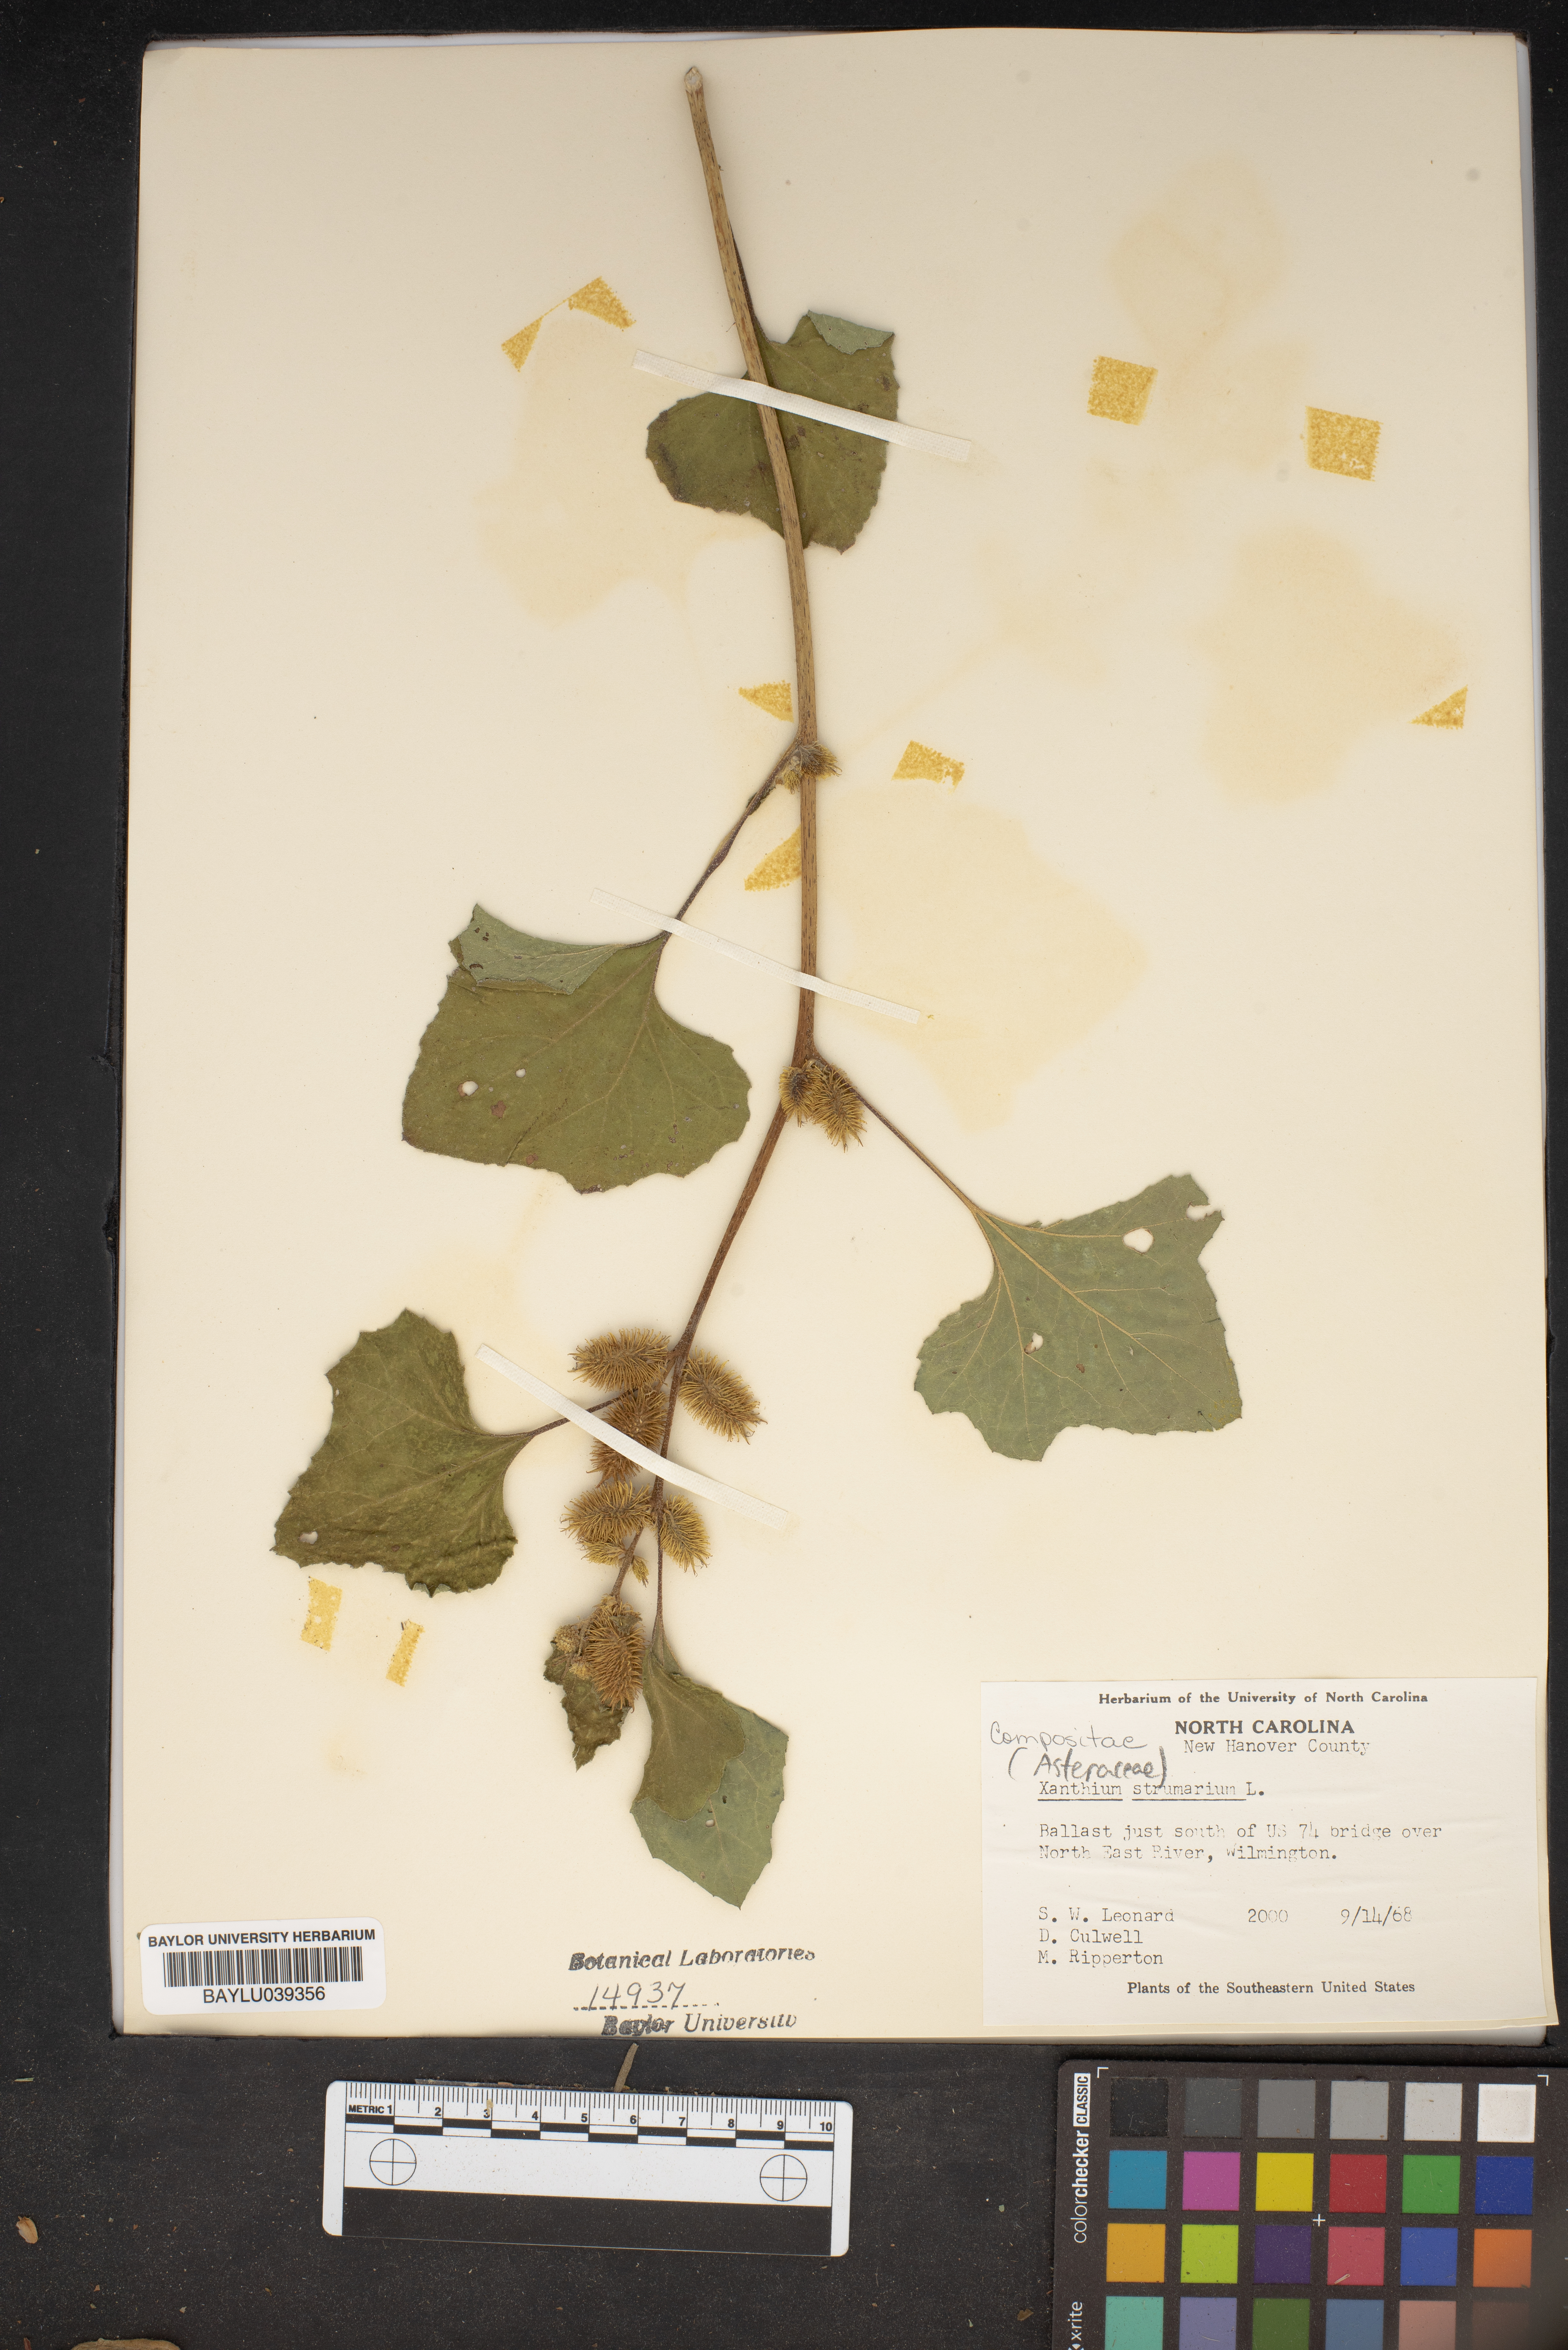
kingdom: Plantae
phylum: Tracheophyta
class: Magnoliopsida
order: Asterales
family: Asteraceae
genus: Xanthium
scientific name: Xanthium strumarium
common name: Rough cocklebur
